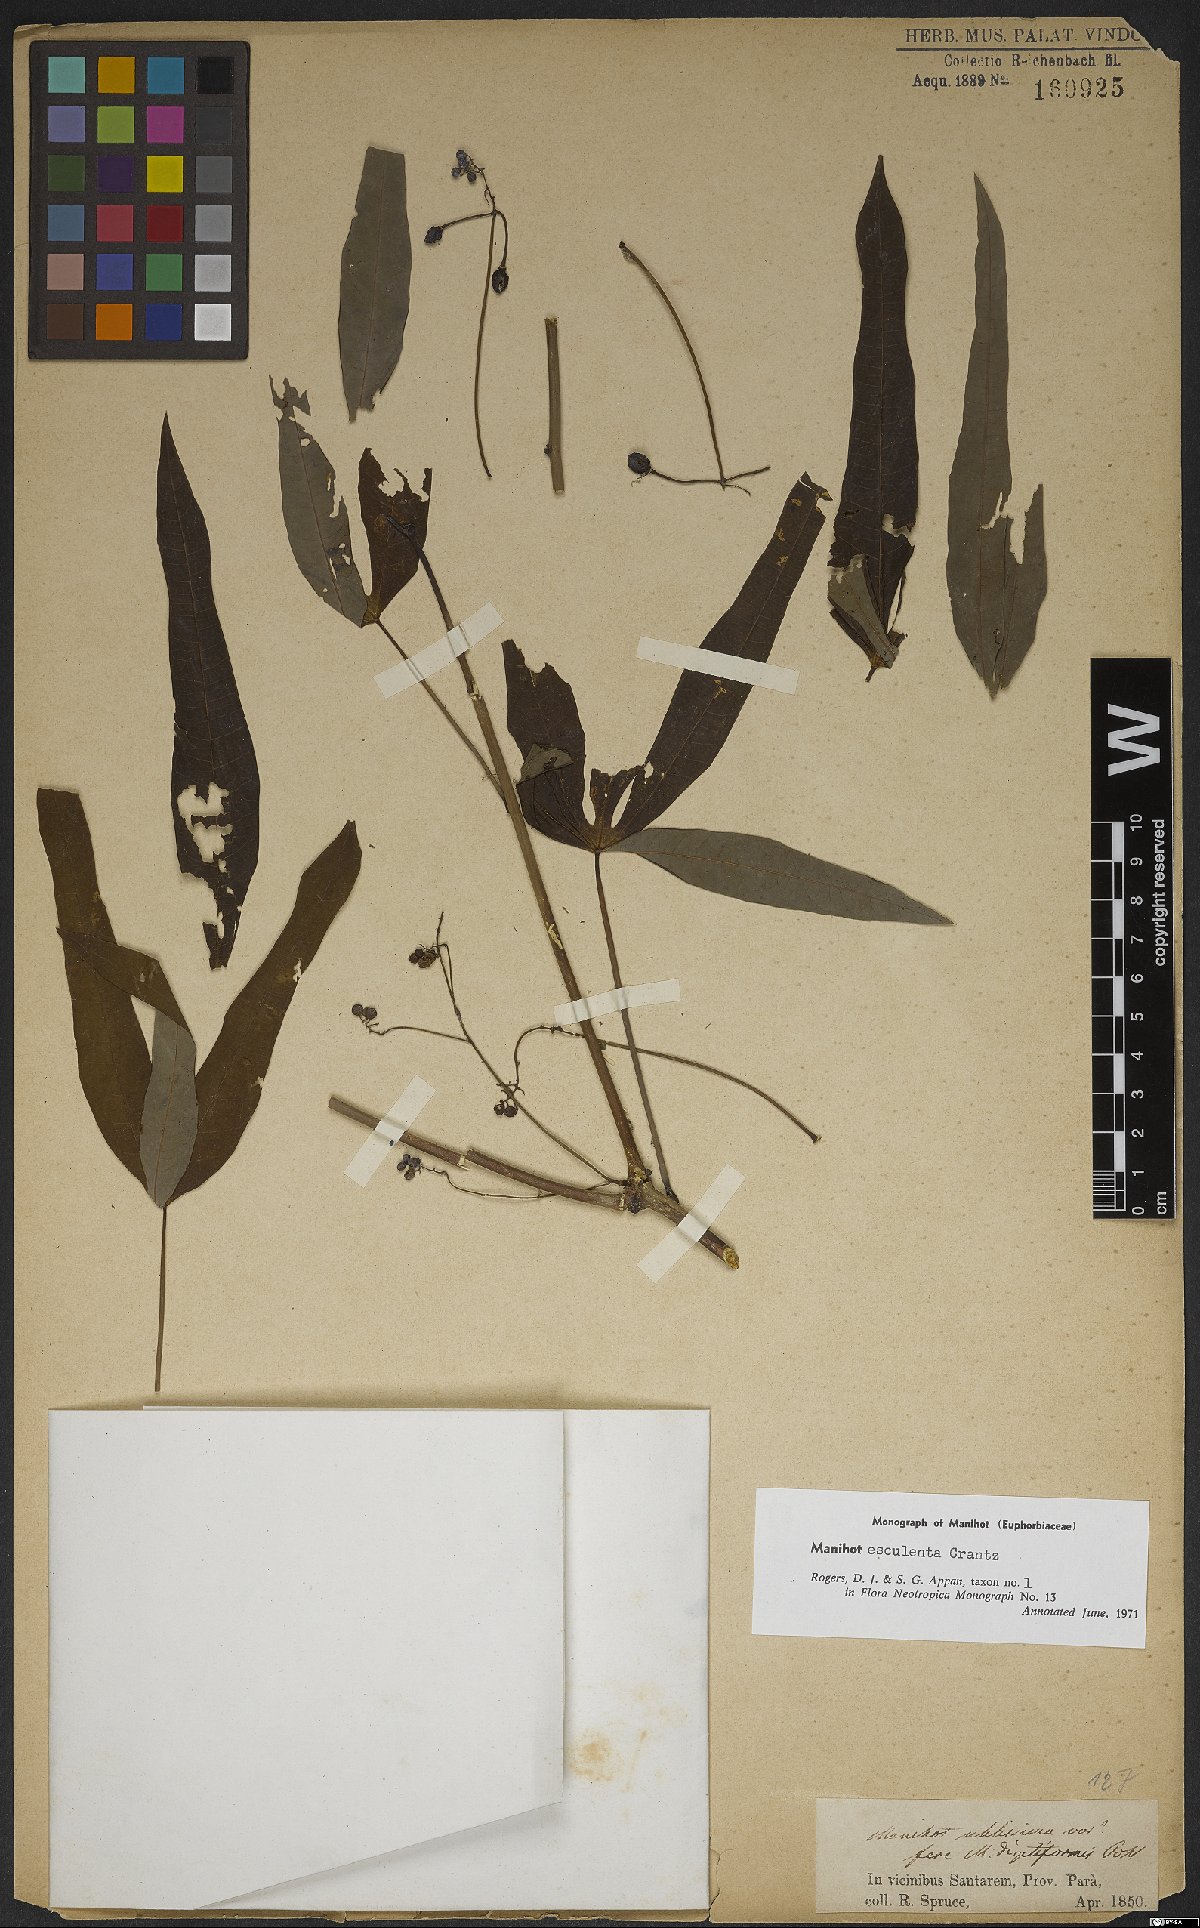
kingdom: Plantae
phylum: Tracheophyta
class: Magnoliopsida
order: Malpighiales
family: Euphorbiaceae
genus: Manihot
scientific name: Manihot esculenta
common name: Cassava
